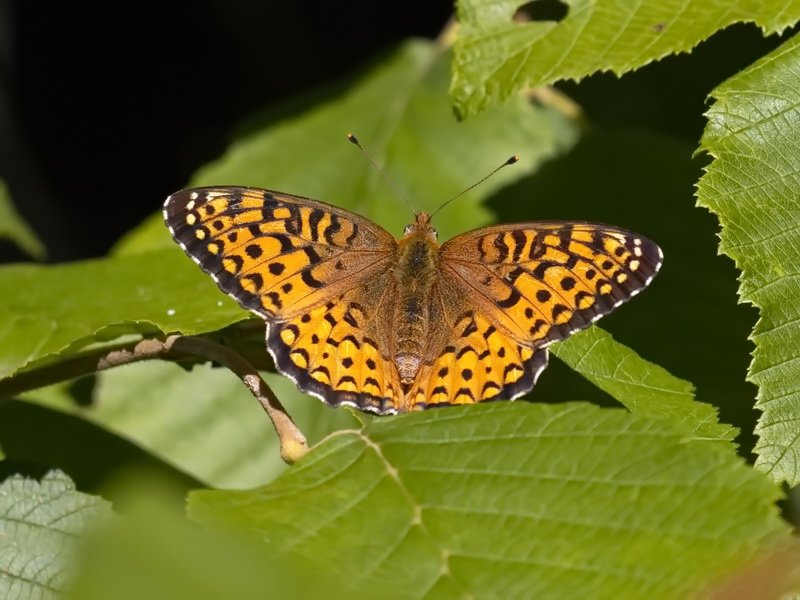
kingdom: Animalia
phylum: Arthropoda
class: Insecta
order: Lepidoptera
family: Nymphalidae
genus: Speyeria
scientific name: Speyeria atlantis
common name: Atlantis Fritillary
